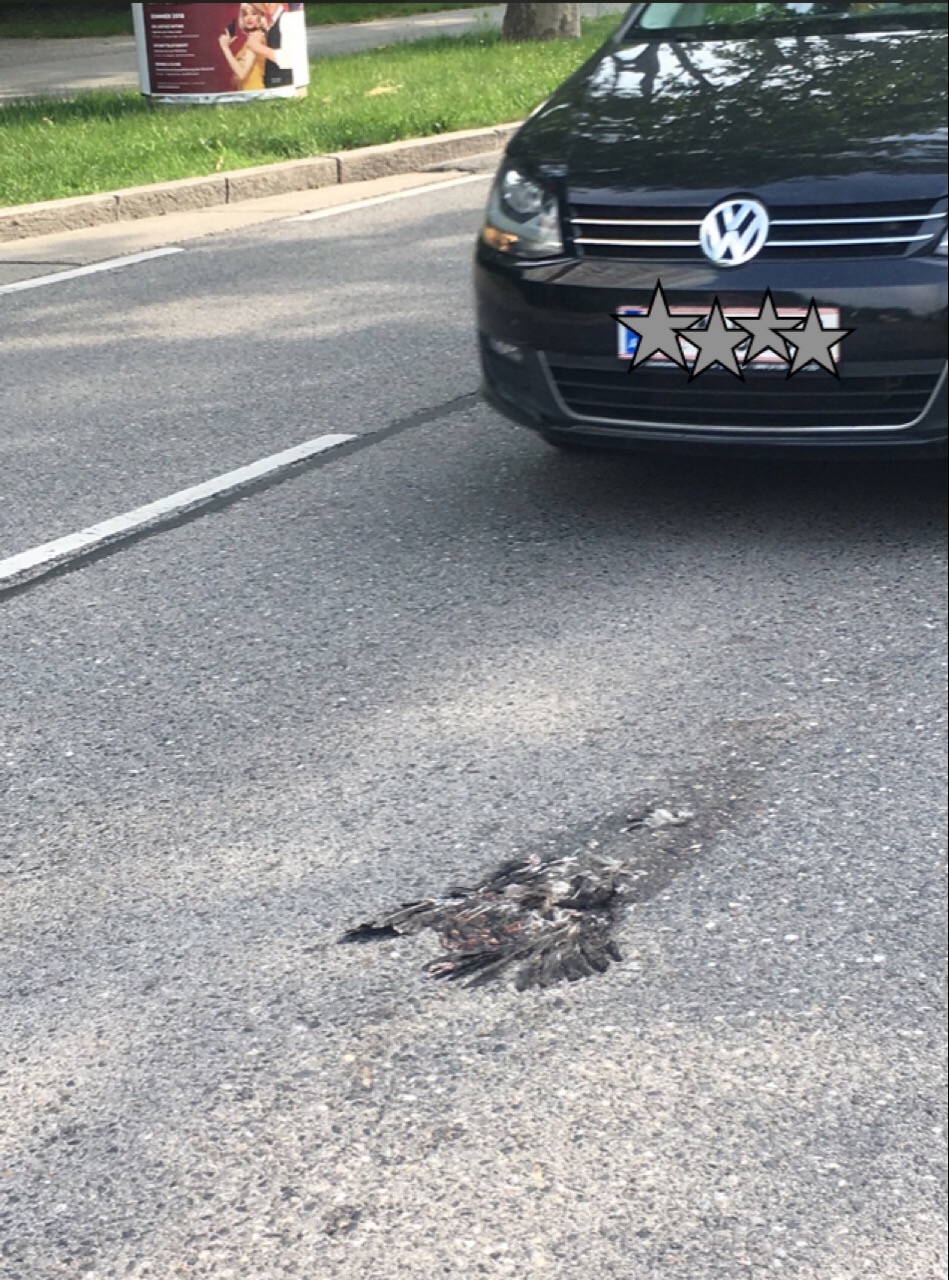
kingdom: Animalia
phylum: Chordata
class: Aves
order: Columbiformes
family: Columbidae
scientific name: Columbidae
